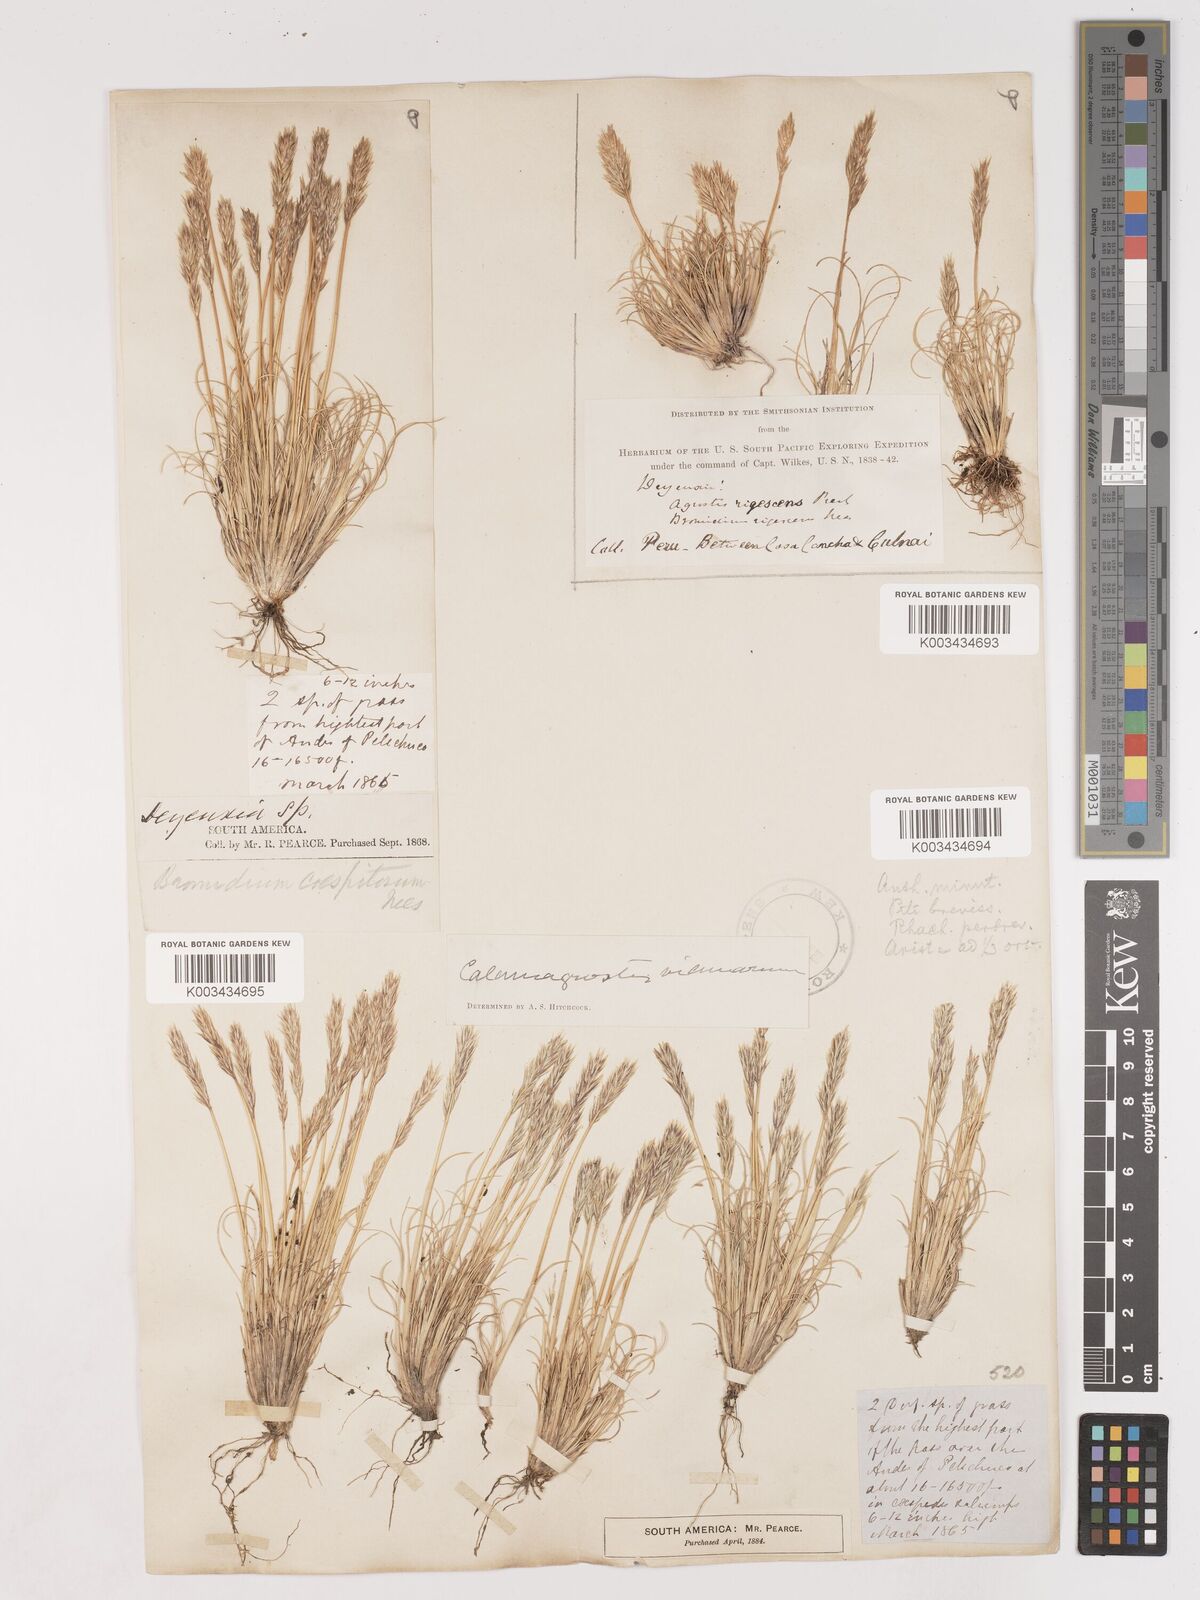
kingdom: Plantae
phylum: Tracheophyta
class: Liliopsida
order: Poales
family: Poaceae
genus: Cinnagrostis
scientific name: Cinnagrostis vicunarum
